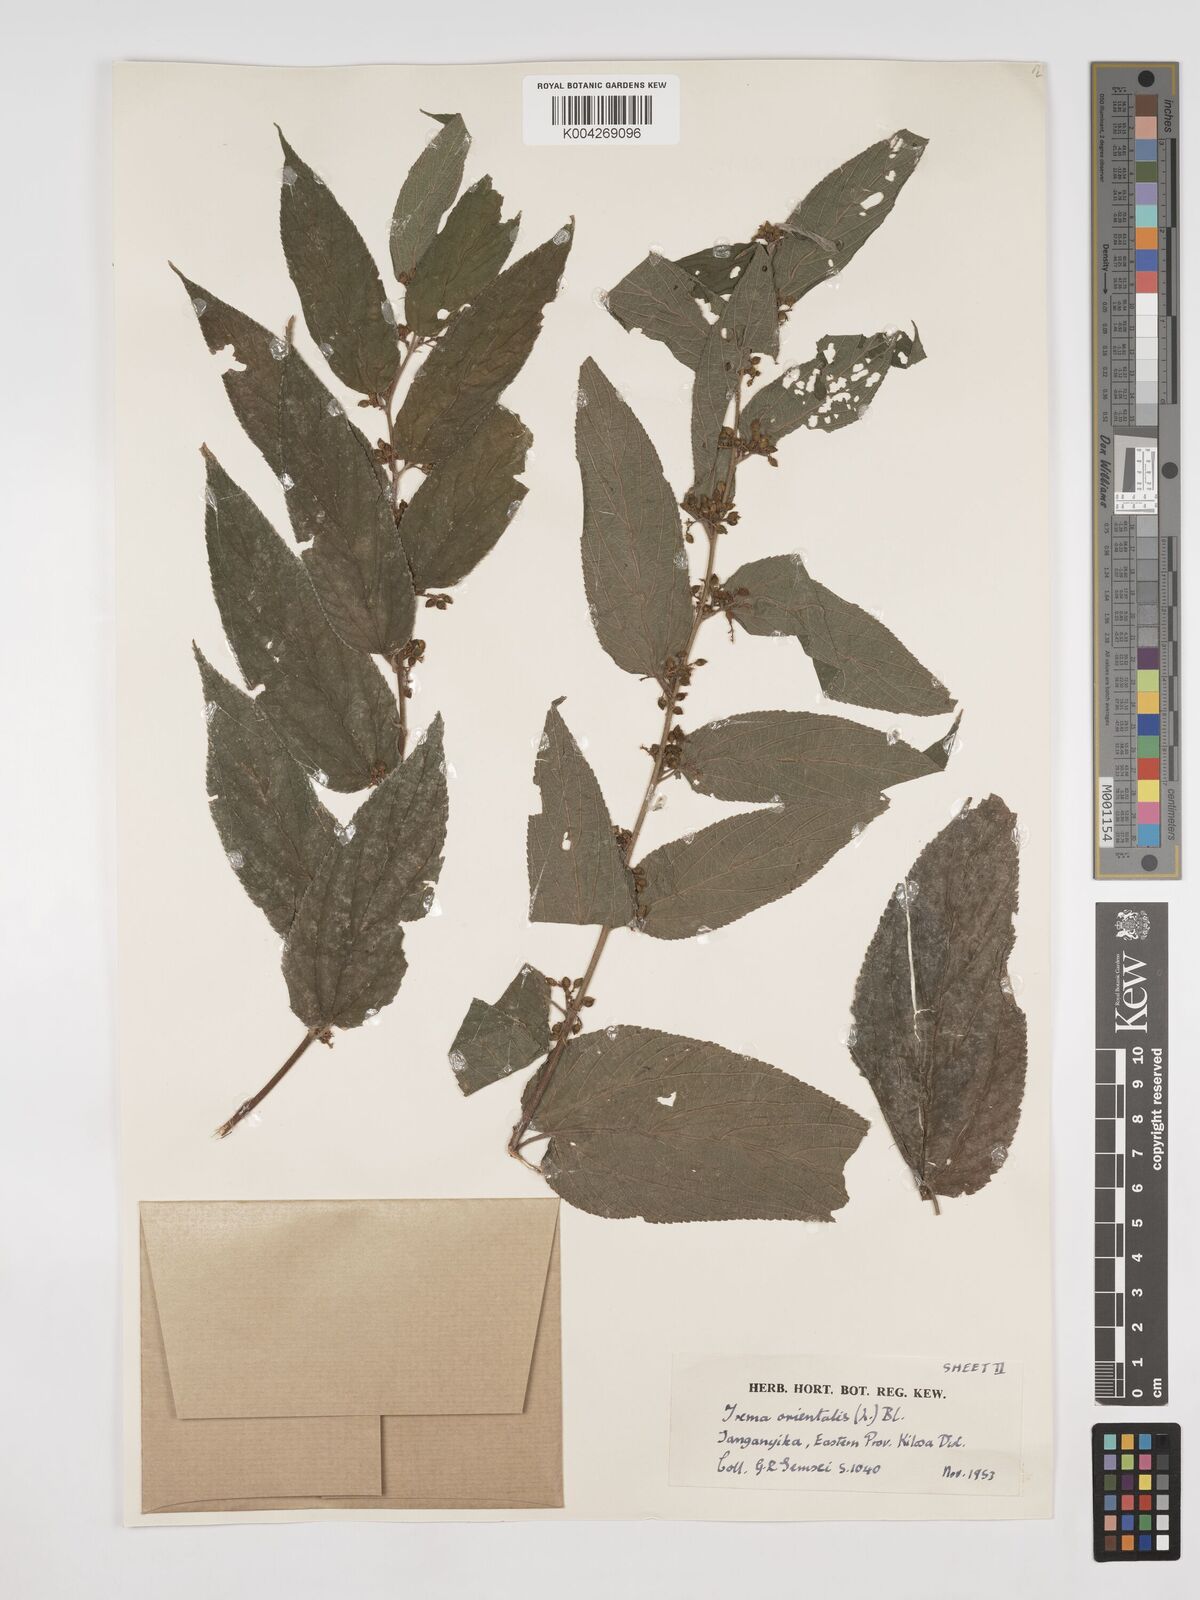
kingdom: Plantae
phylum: Tracheophyta
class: Magnoliopsida
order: Rosales
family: Cannabaceae
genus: Trema
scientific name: Trema orientale
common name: Indian charcoal tree
